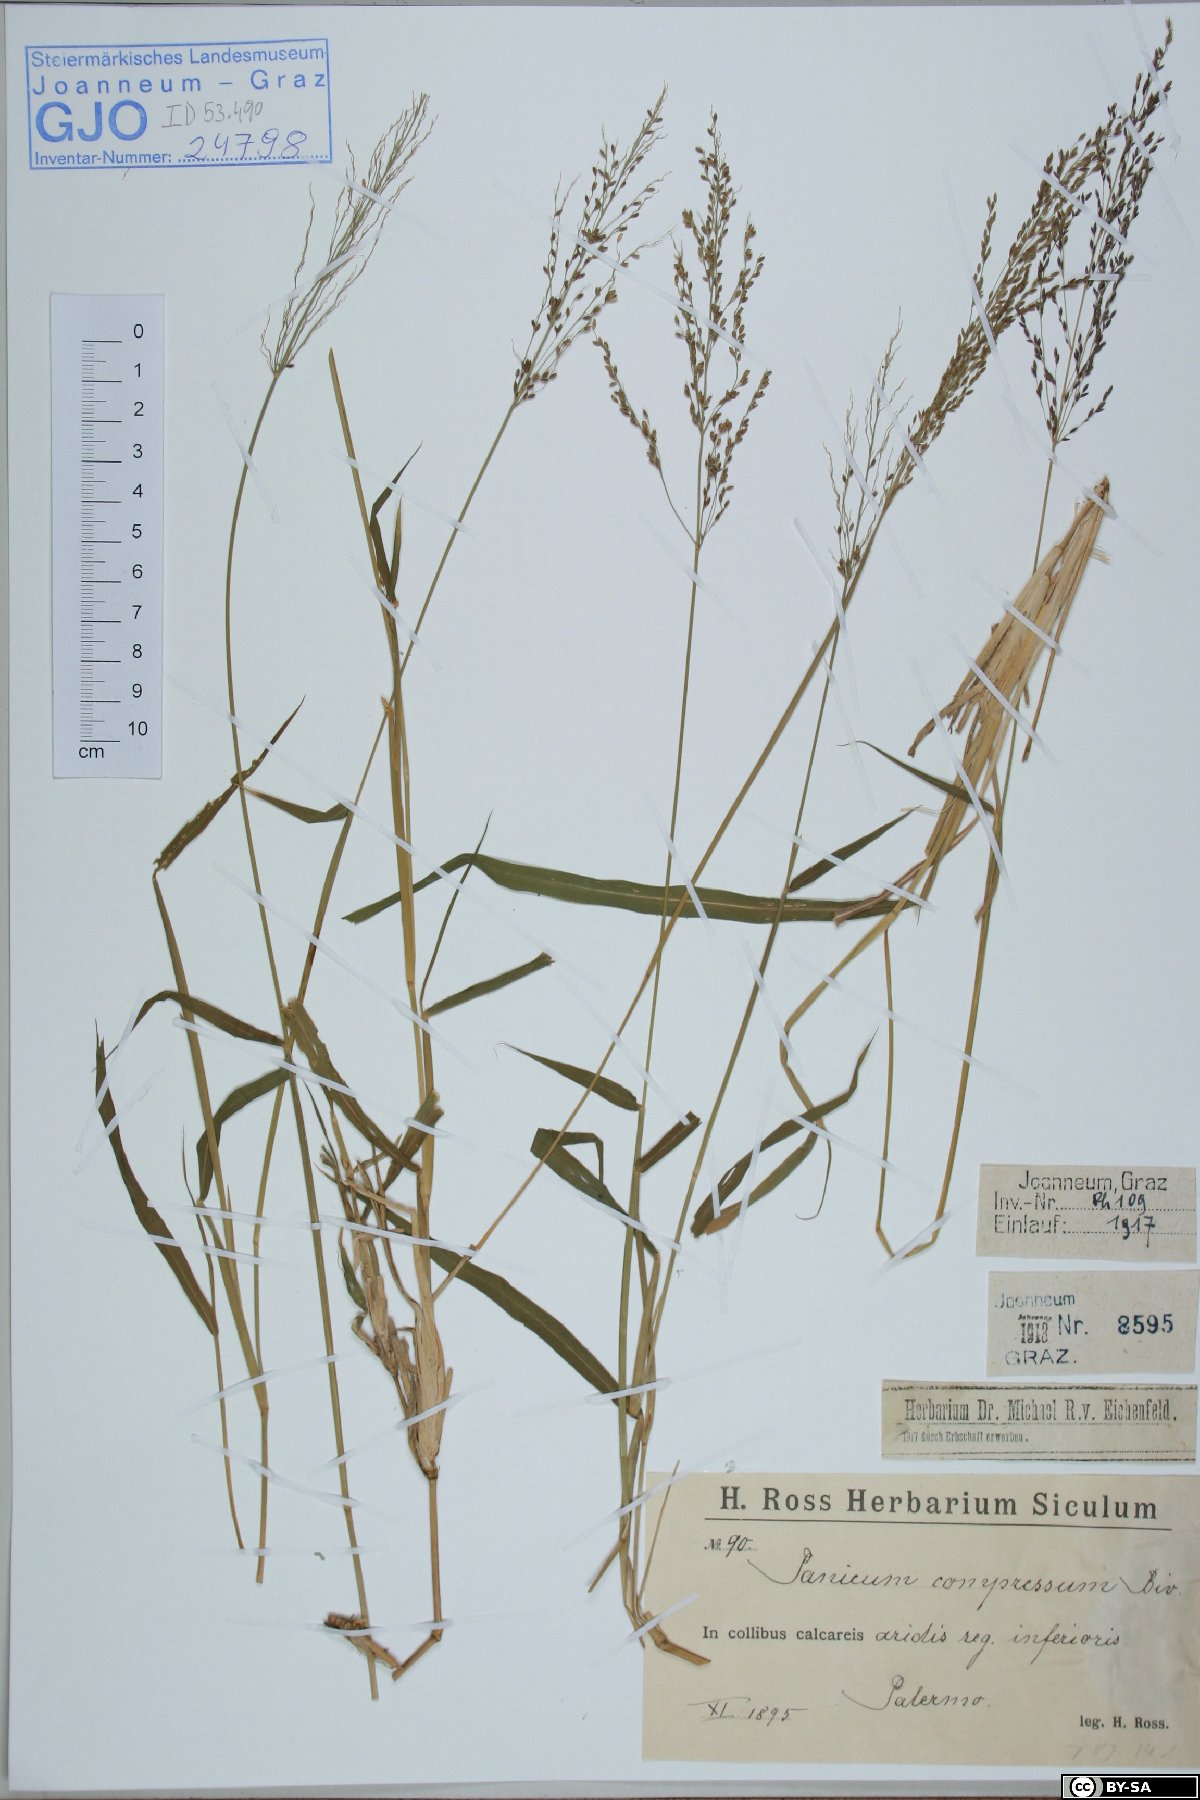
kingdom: Plantae
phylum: Tracheophyta
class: Liliopsida
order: Poales
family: Poaceae
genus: Megathyrsus
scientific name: Megathyrsus maximus
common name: Guineagrass
